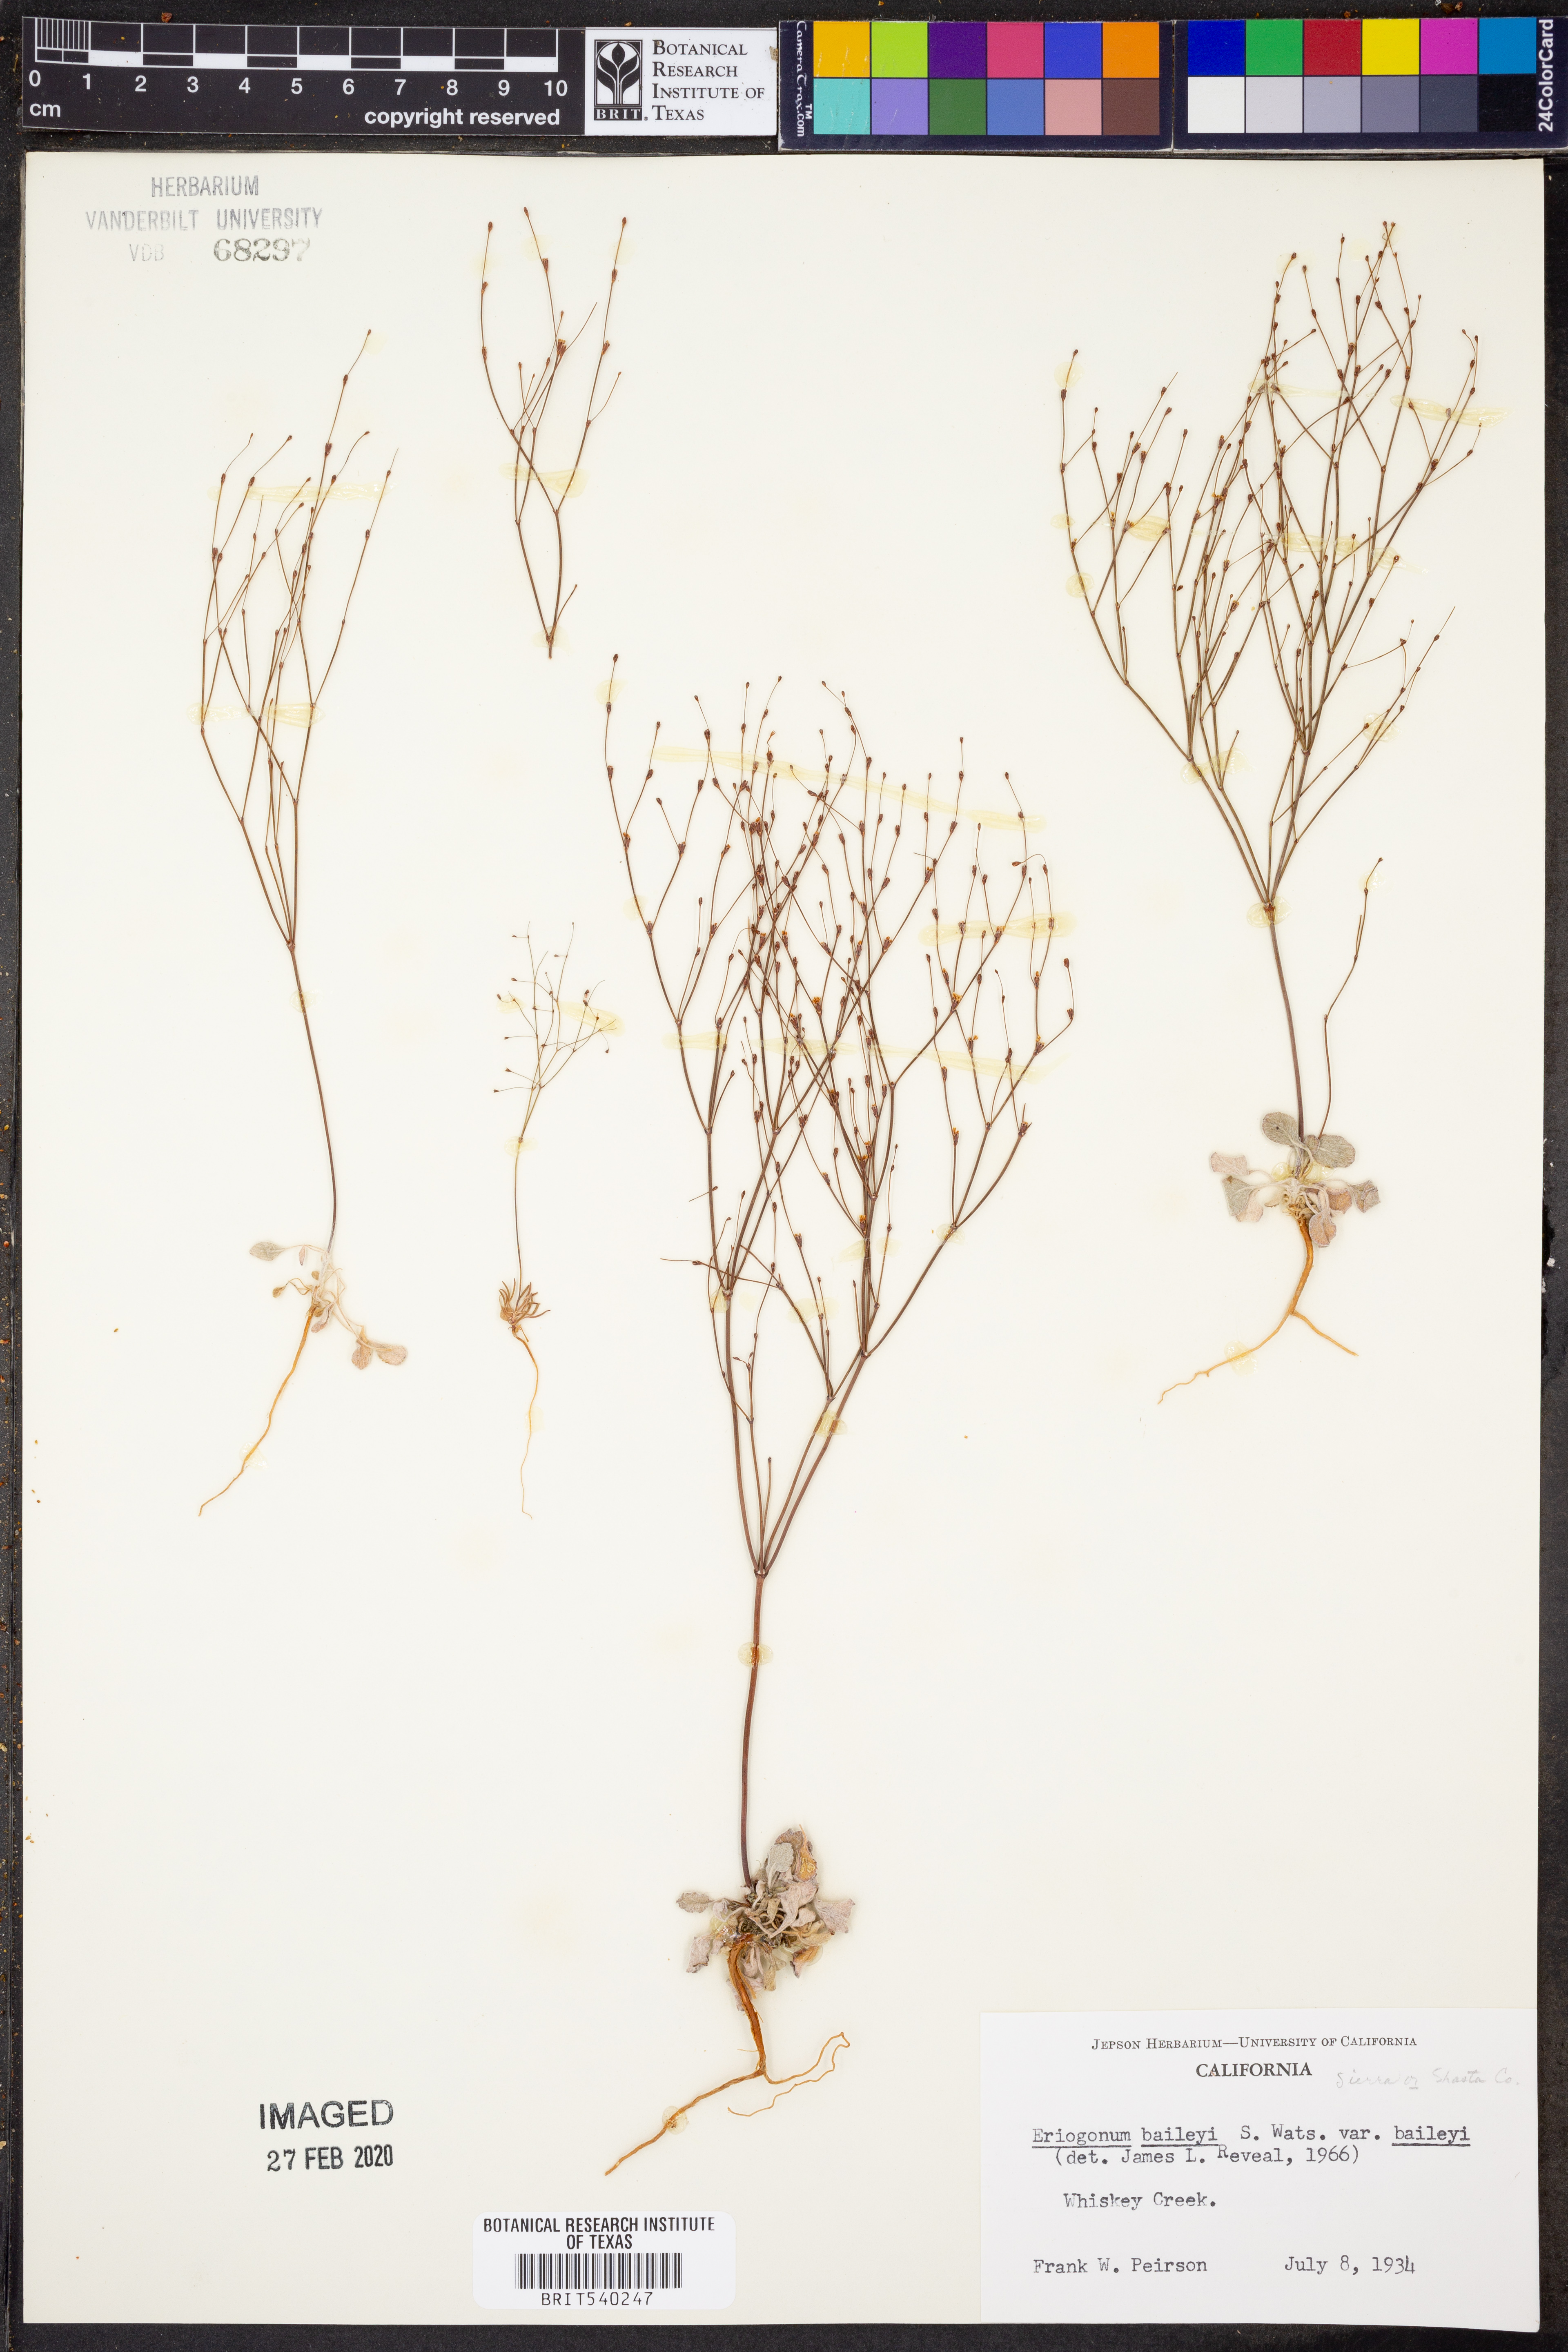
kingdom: Plantae
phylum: Tracheophyta
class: Magnoliopsida
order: Caryophyllales
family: Polygonaceae
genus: Eriogonum
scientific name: Eriogonum baileyi
